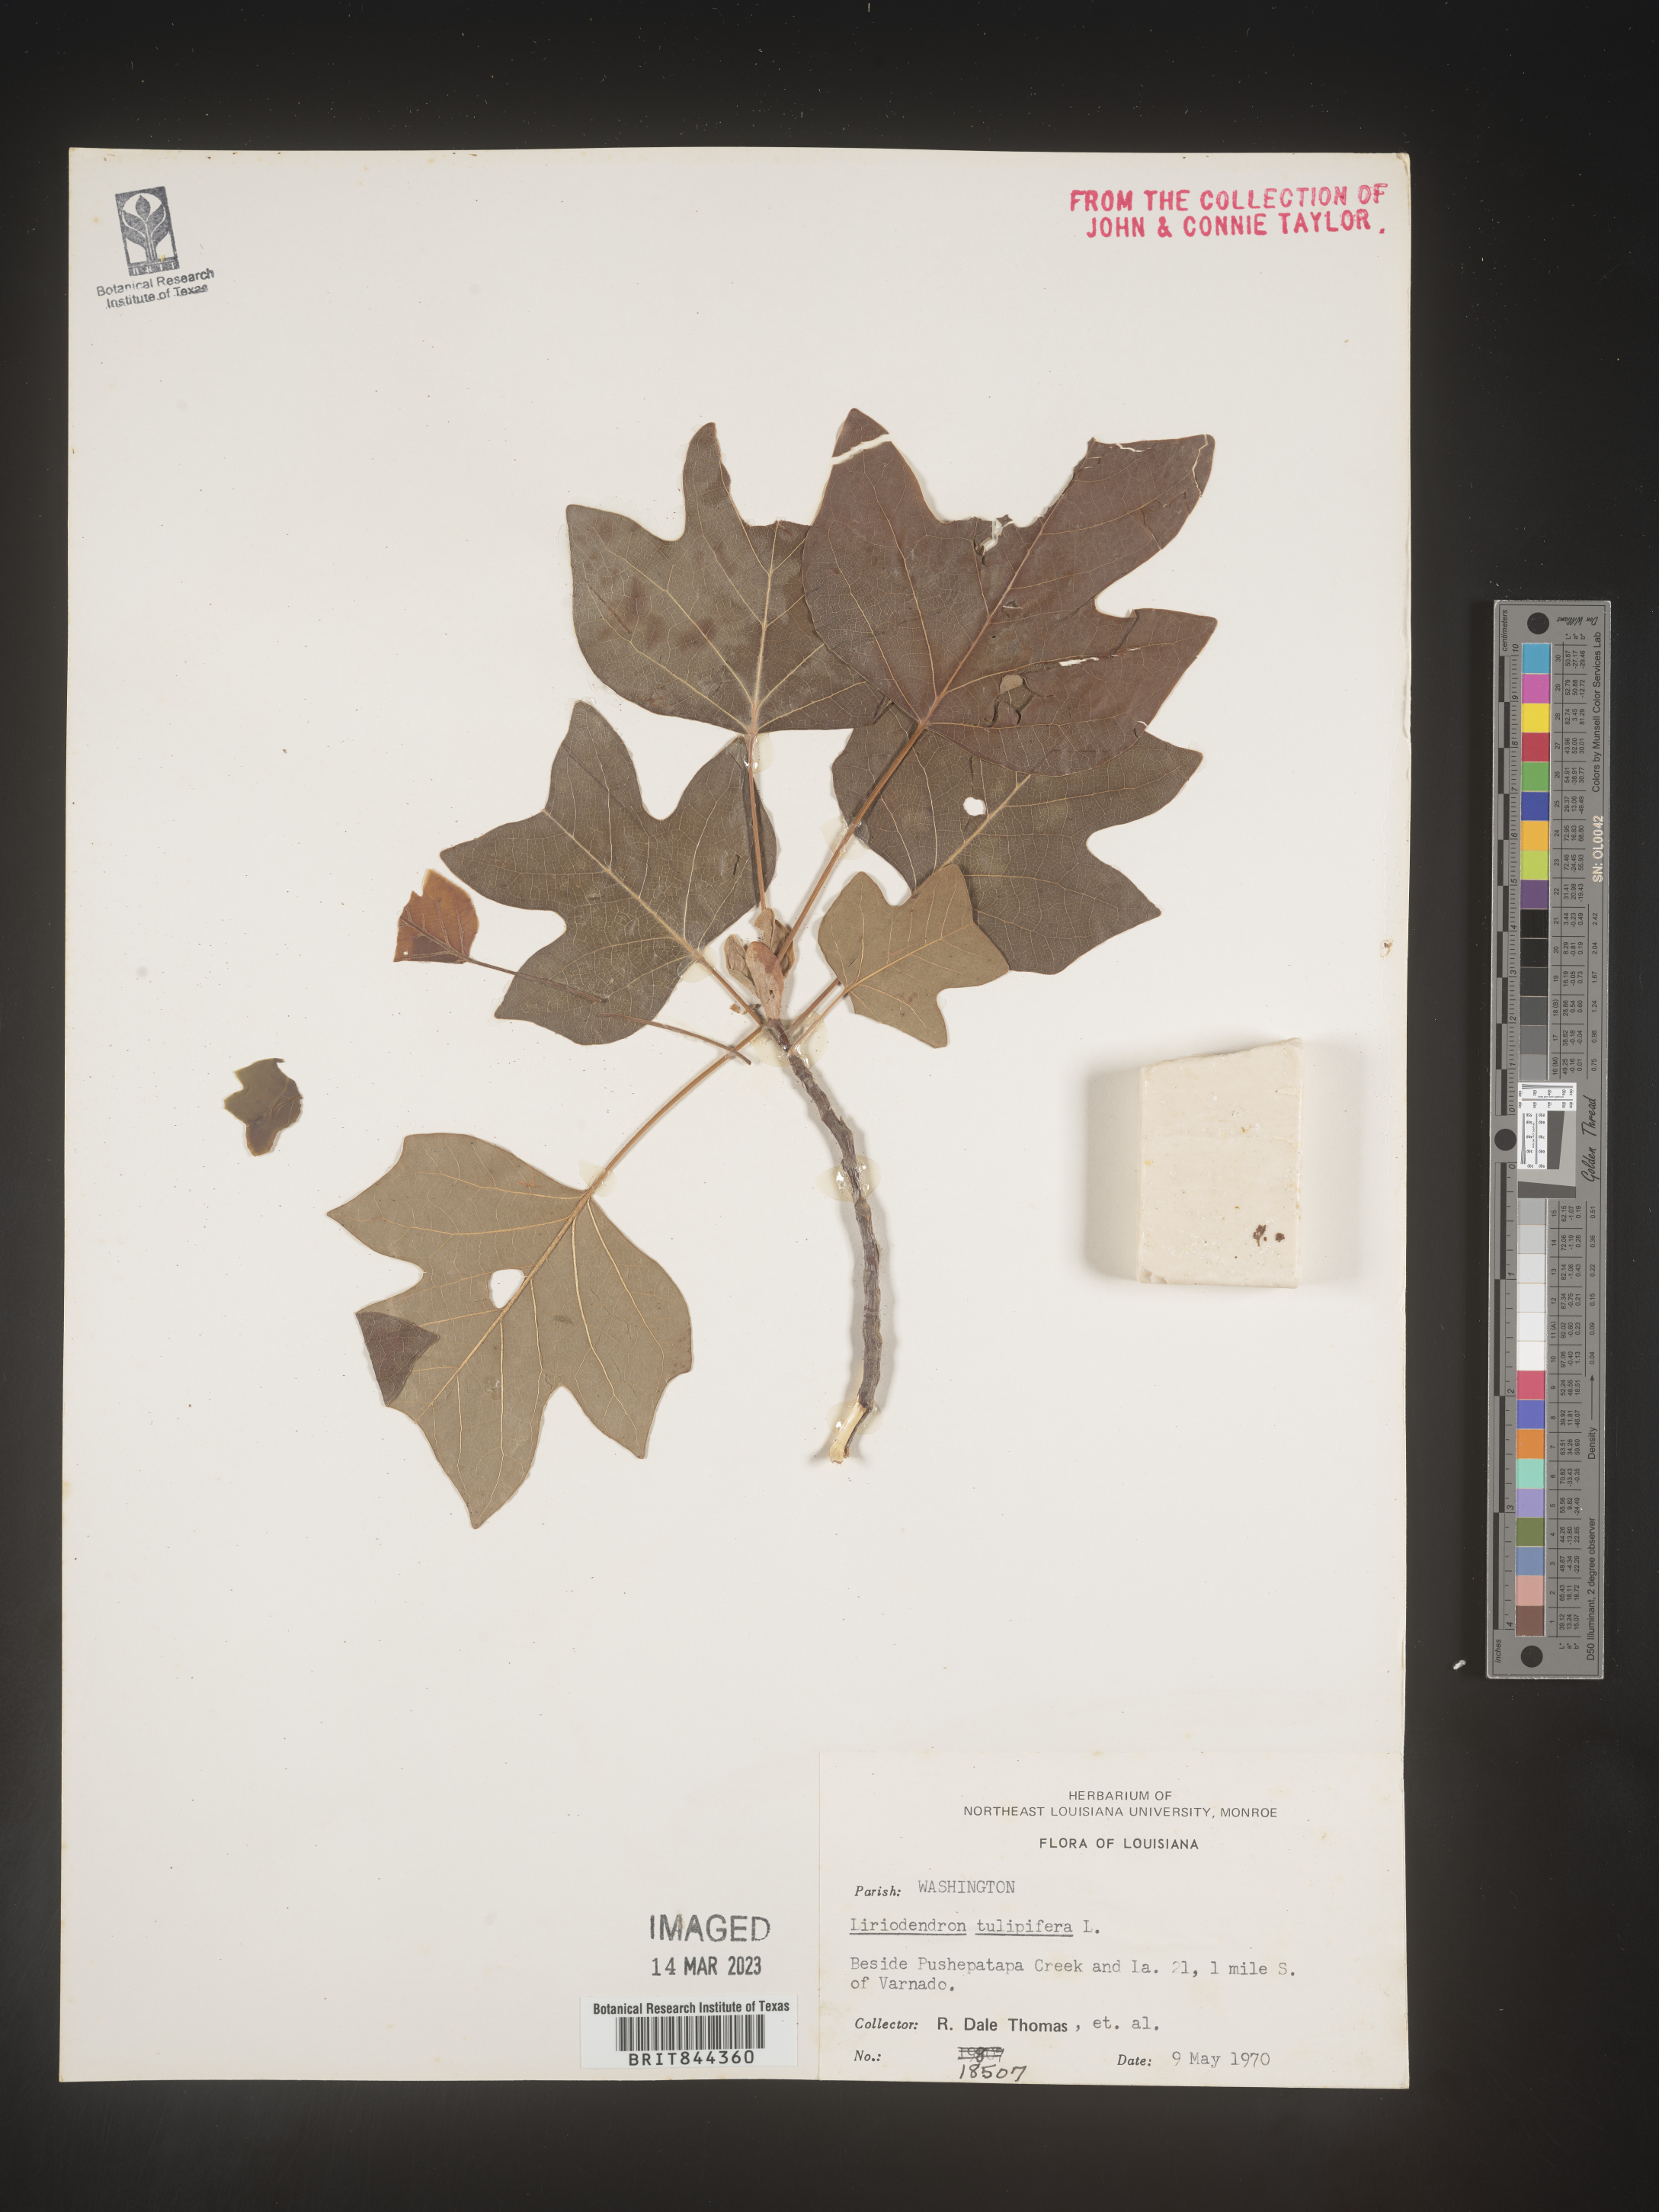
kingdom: Plantae
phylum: Tracheophyta
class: Magnoliopsida
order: Magnoliales
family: Magnoliaceae
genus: Liriodendron
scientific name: Liriodendron tulipifera
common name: Tulip tree
